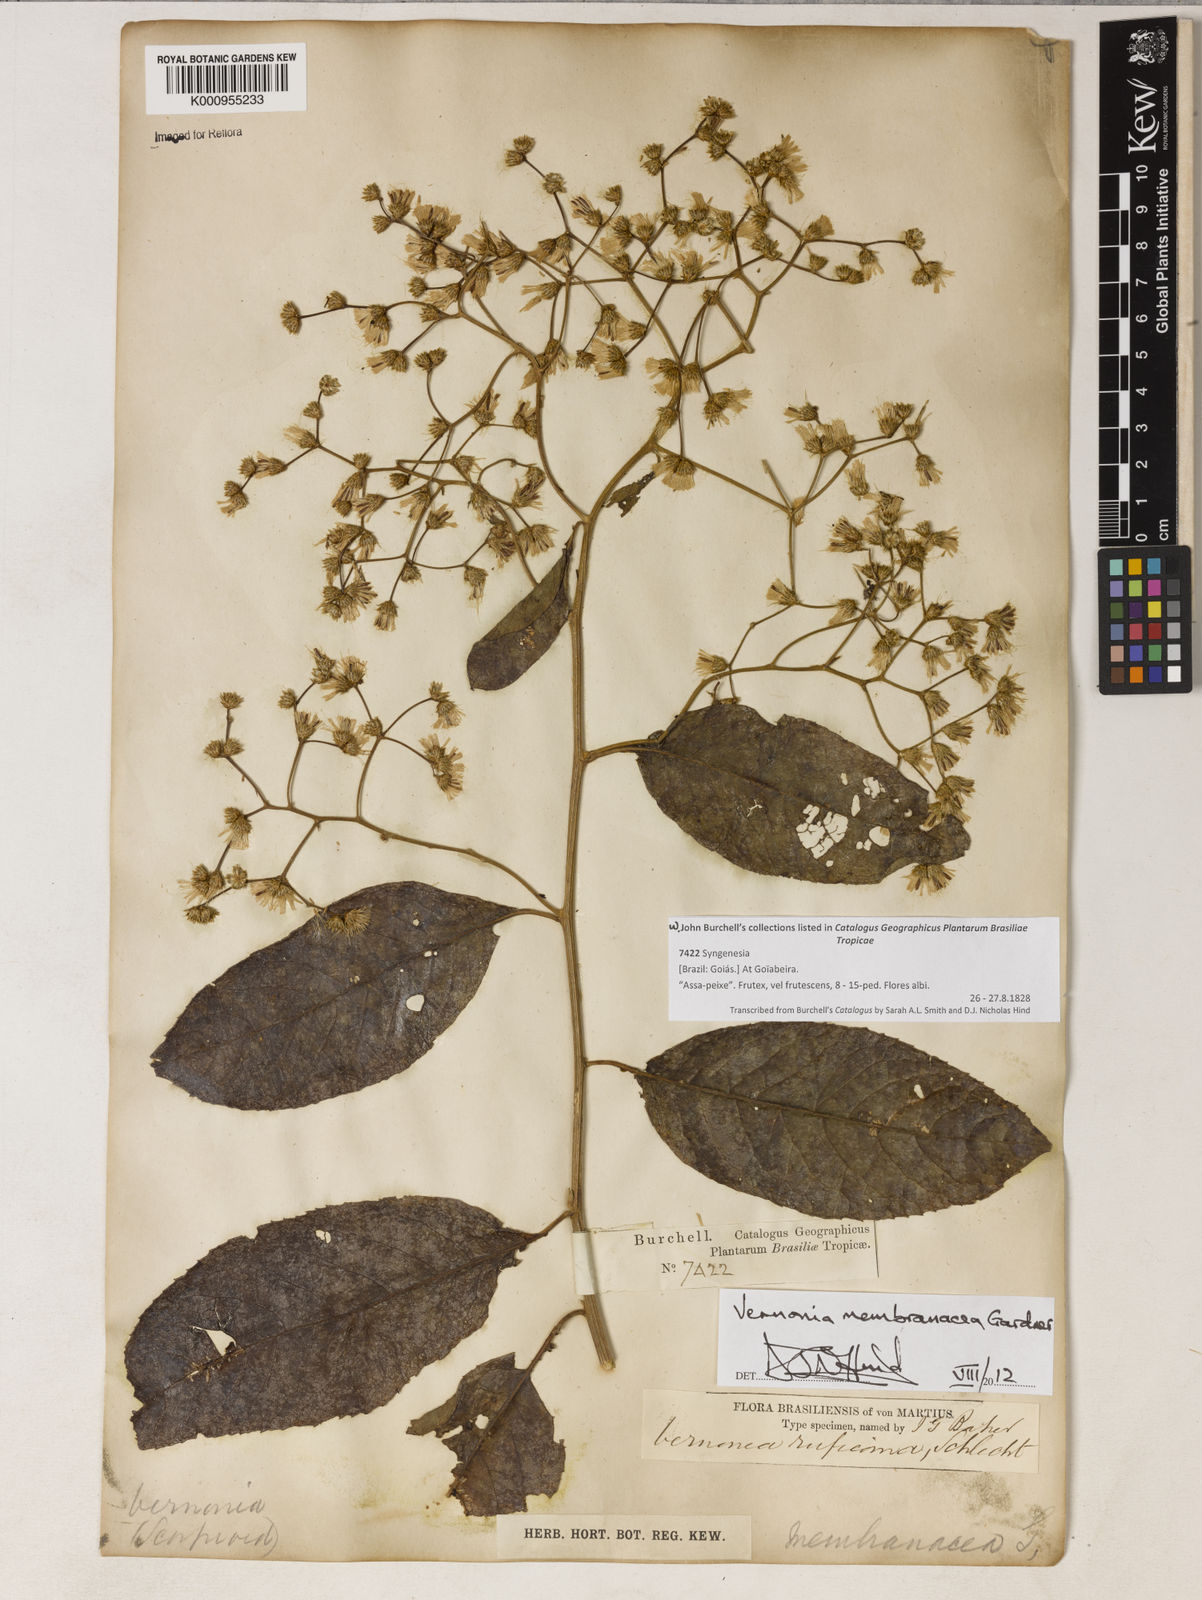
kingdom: Plantae
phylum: Tracheophyta
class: Magnoliopsida
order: Asterales
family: Asteraceae
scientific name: Asteraceae
